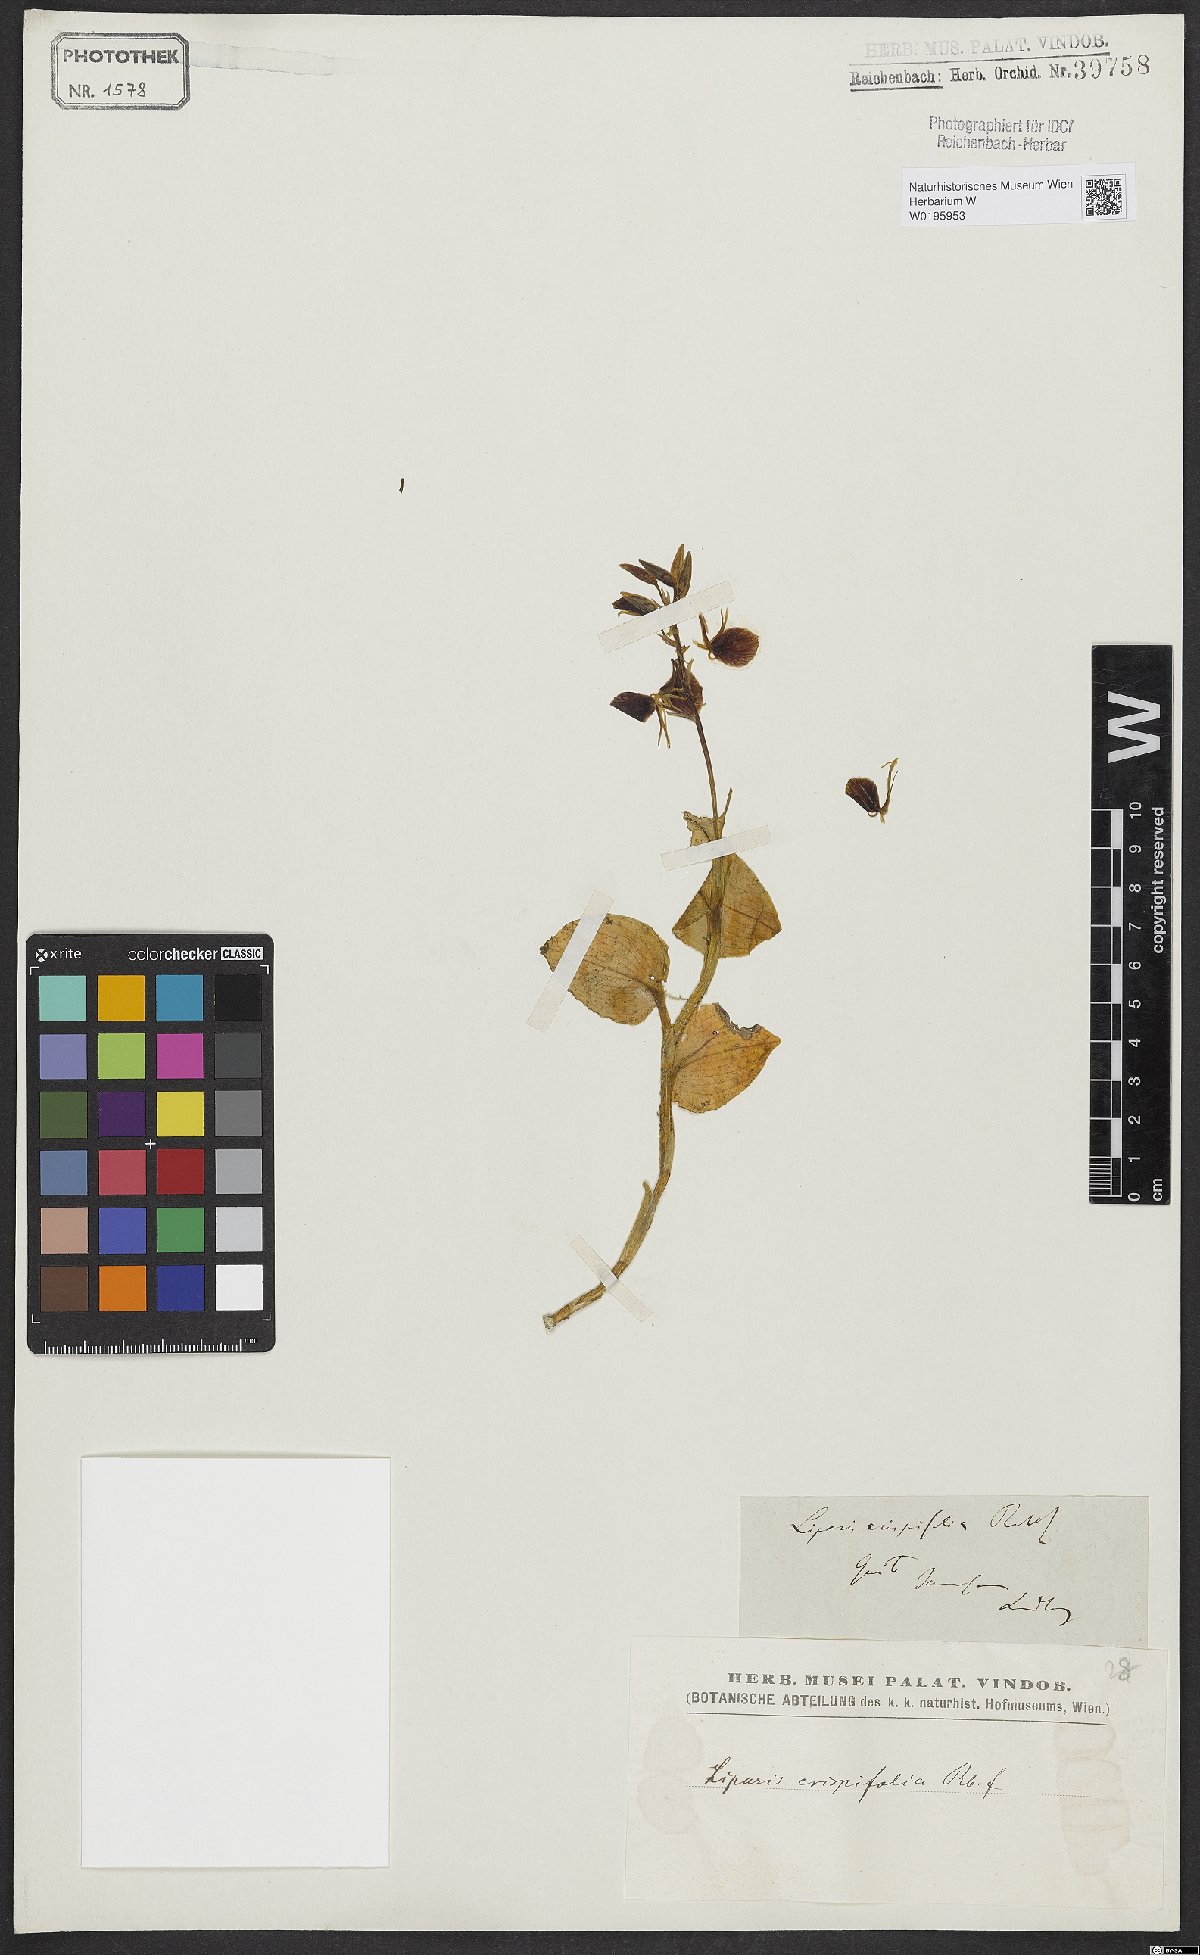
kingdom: Plantae
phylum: Tracheophyta
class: Liliopsida
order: Asparagales
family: Orchidaceae
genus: Liparis
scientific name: Liparis crispifolia
